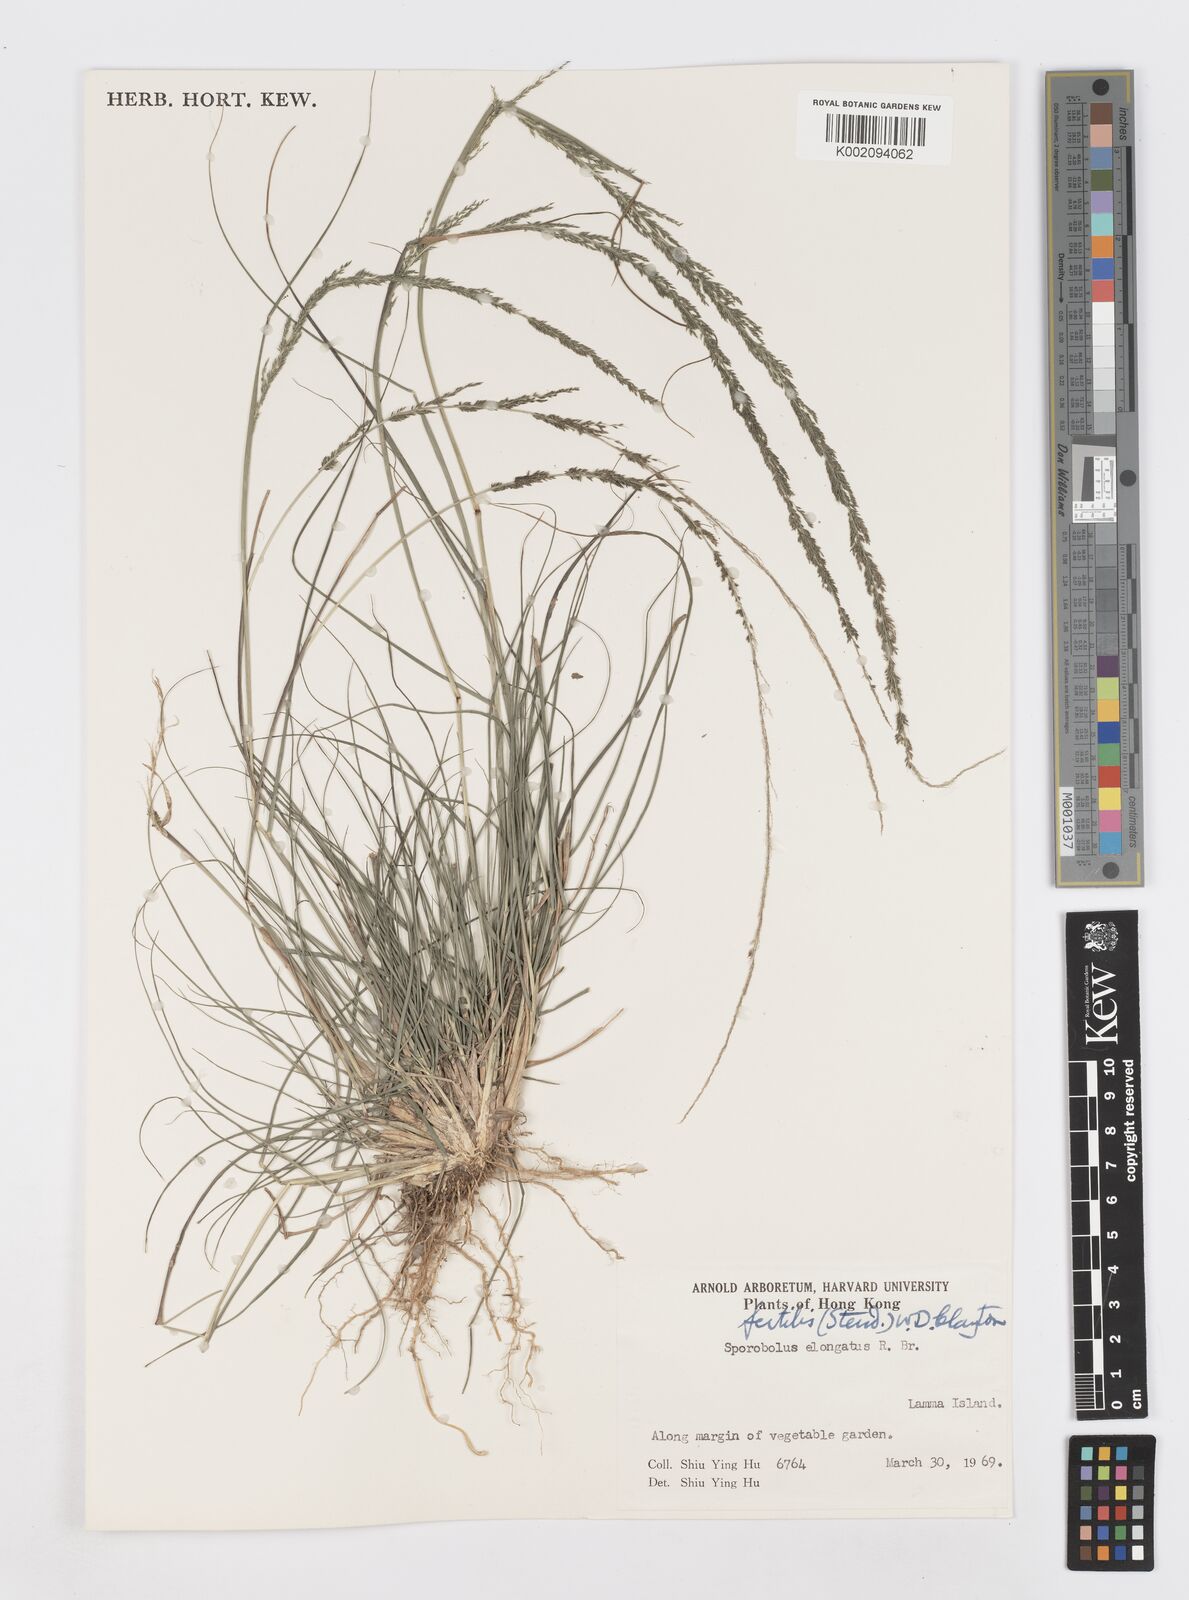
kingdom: Plantae
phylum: Tracheophyta
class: Liliopsida
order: Poales
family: Poaceae
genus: Sporobolus
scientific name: Sporobolus fertilis
